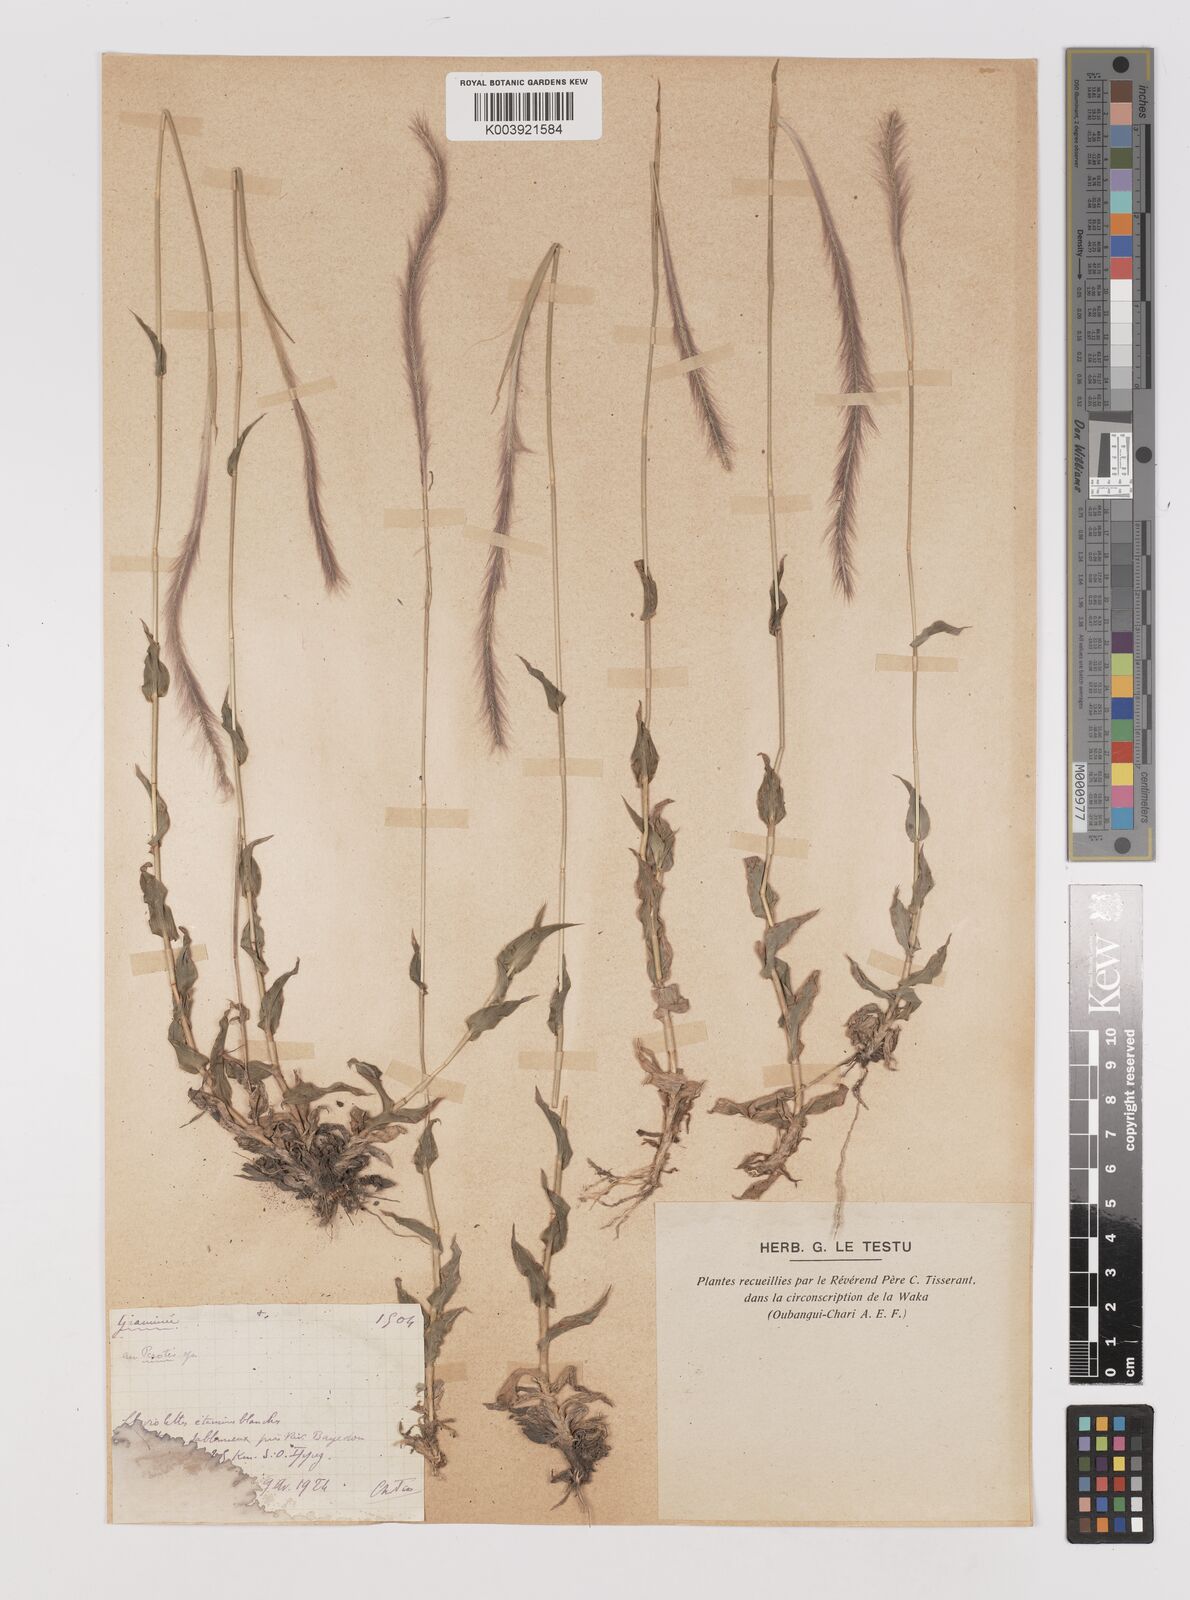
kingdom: Plantae
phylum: Tracheophyta
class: Liliopsida
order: Poales
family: Poaceae
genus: Perotis
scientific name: Perotis patens
